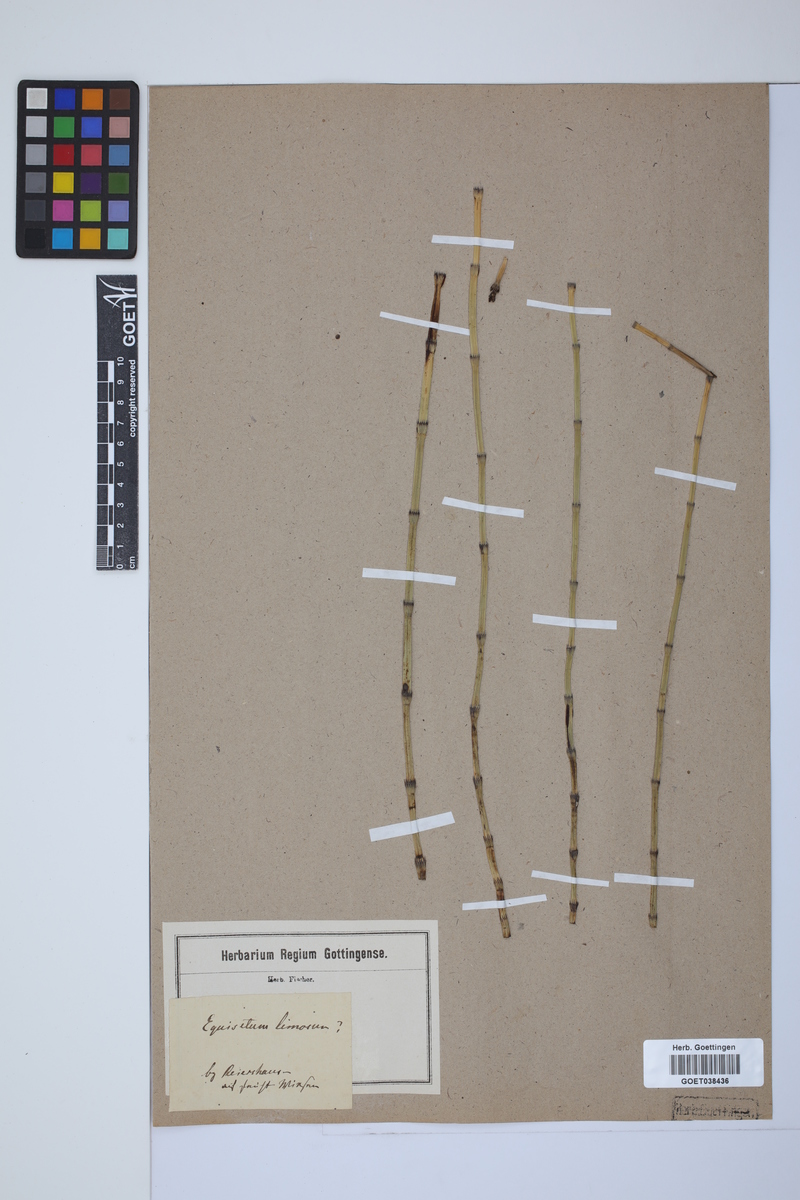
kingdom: Plantae
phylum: Tracheophyta
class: Polypodiopsida
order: Equisetales
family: Equisetaceae
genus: Equisetum
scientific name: Equisetum fluviatile
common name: Water horsetail
